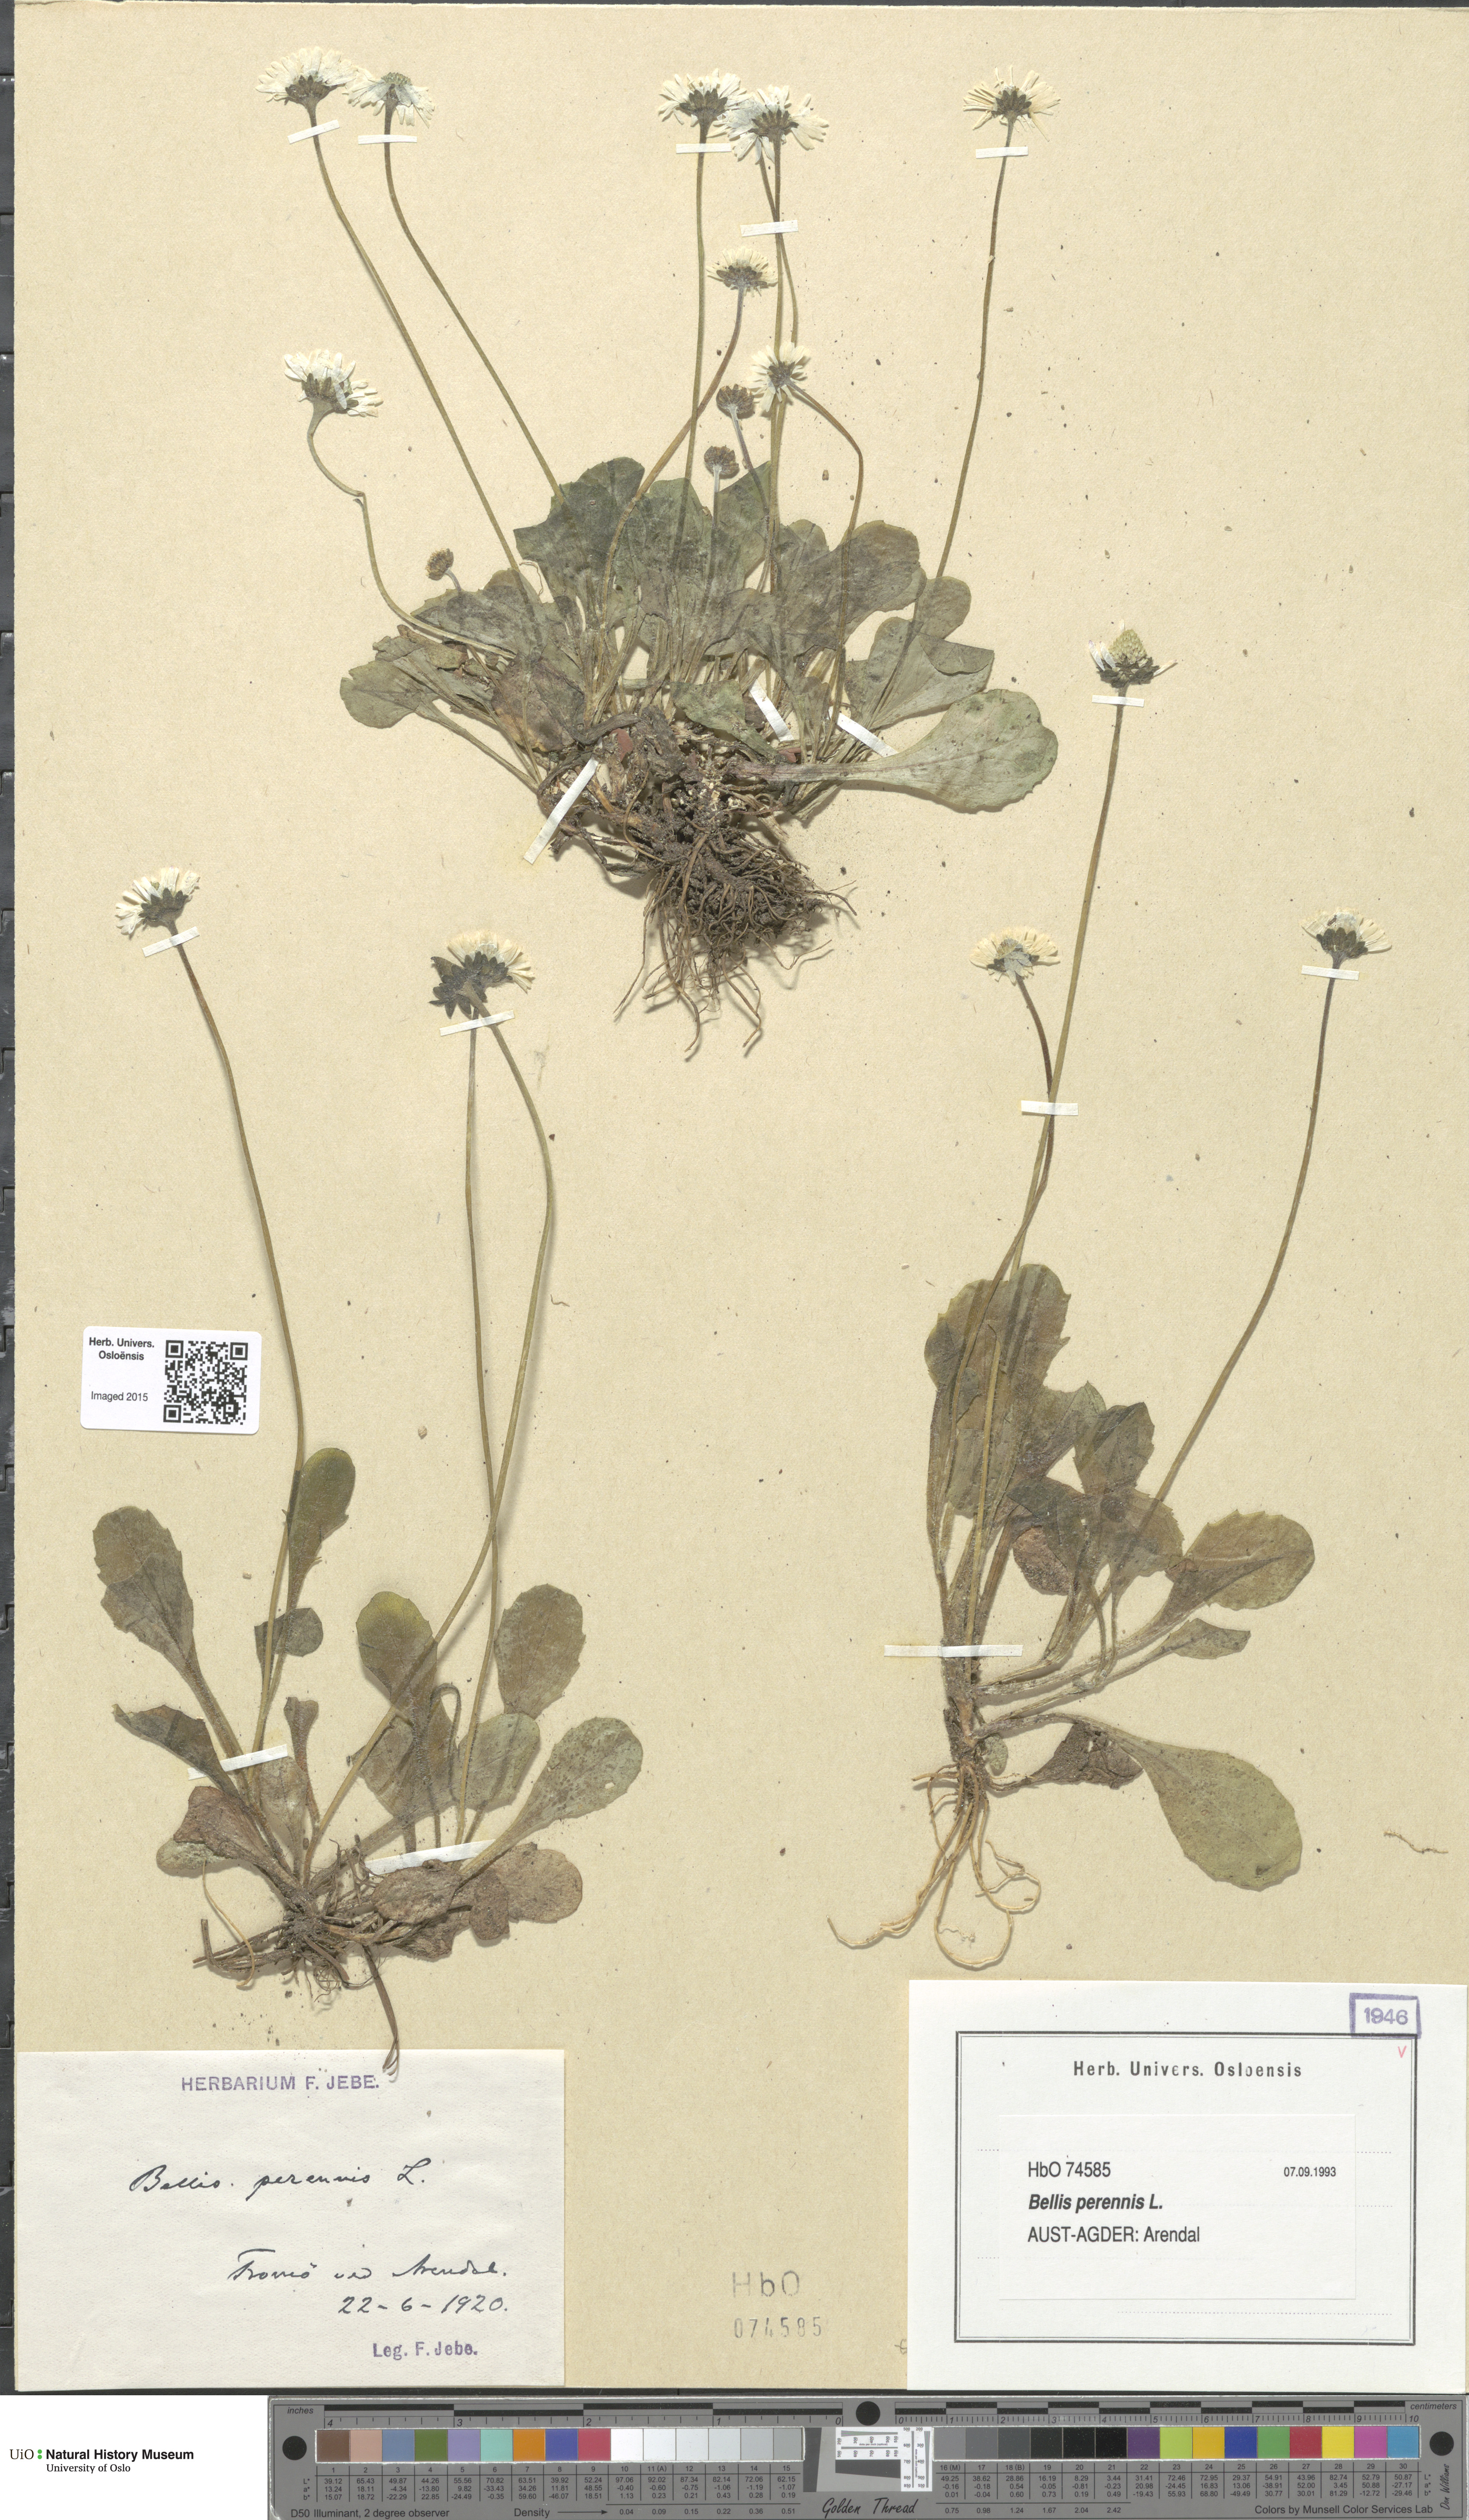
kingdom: Plantae
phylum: Tracheophyta
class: Magnoliopsida
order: Asterales
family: Asteraceae
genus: Bellis
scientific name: Bellis perennis
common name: Lawndaisy
